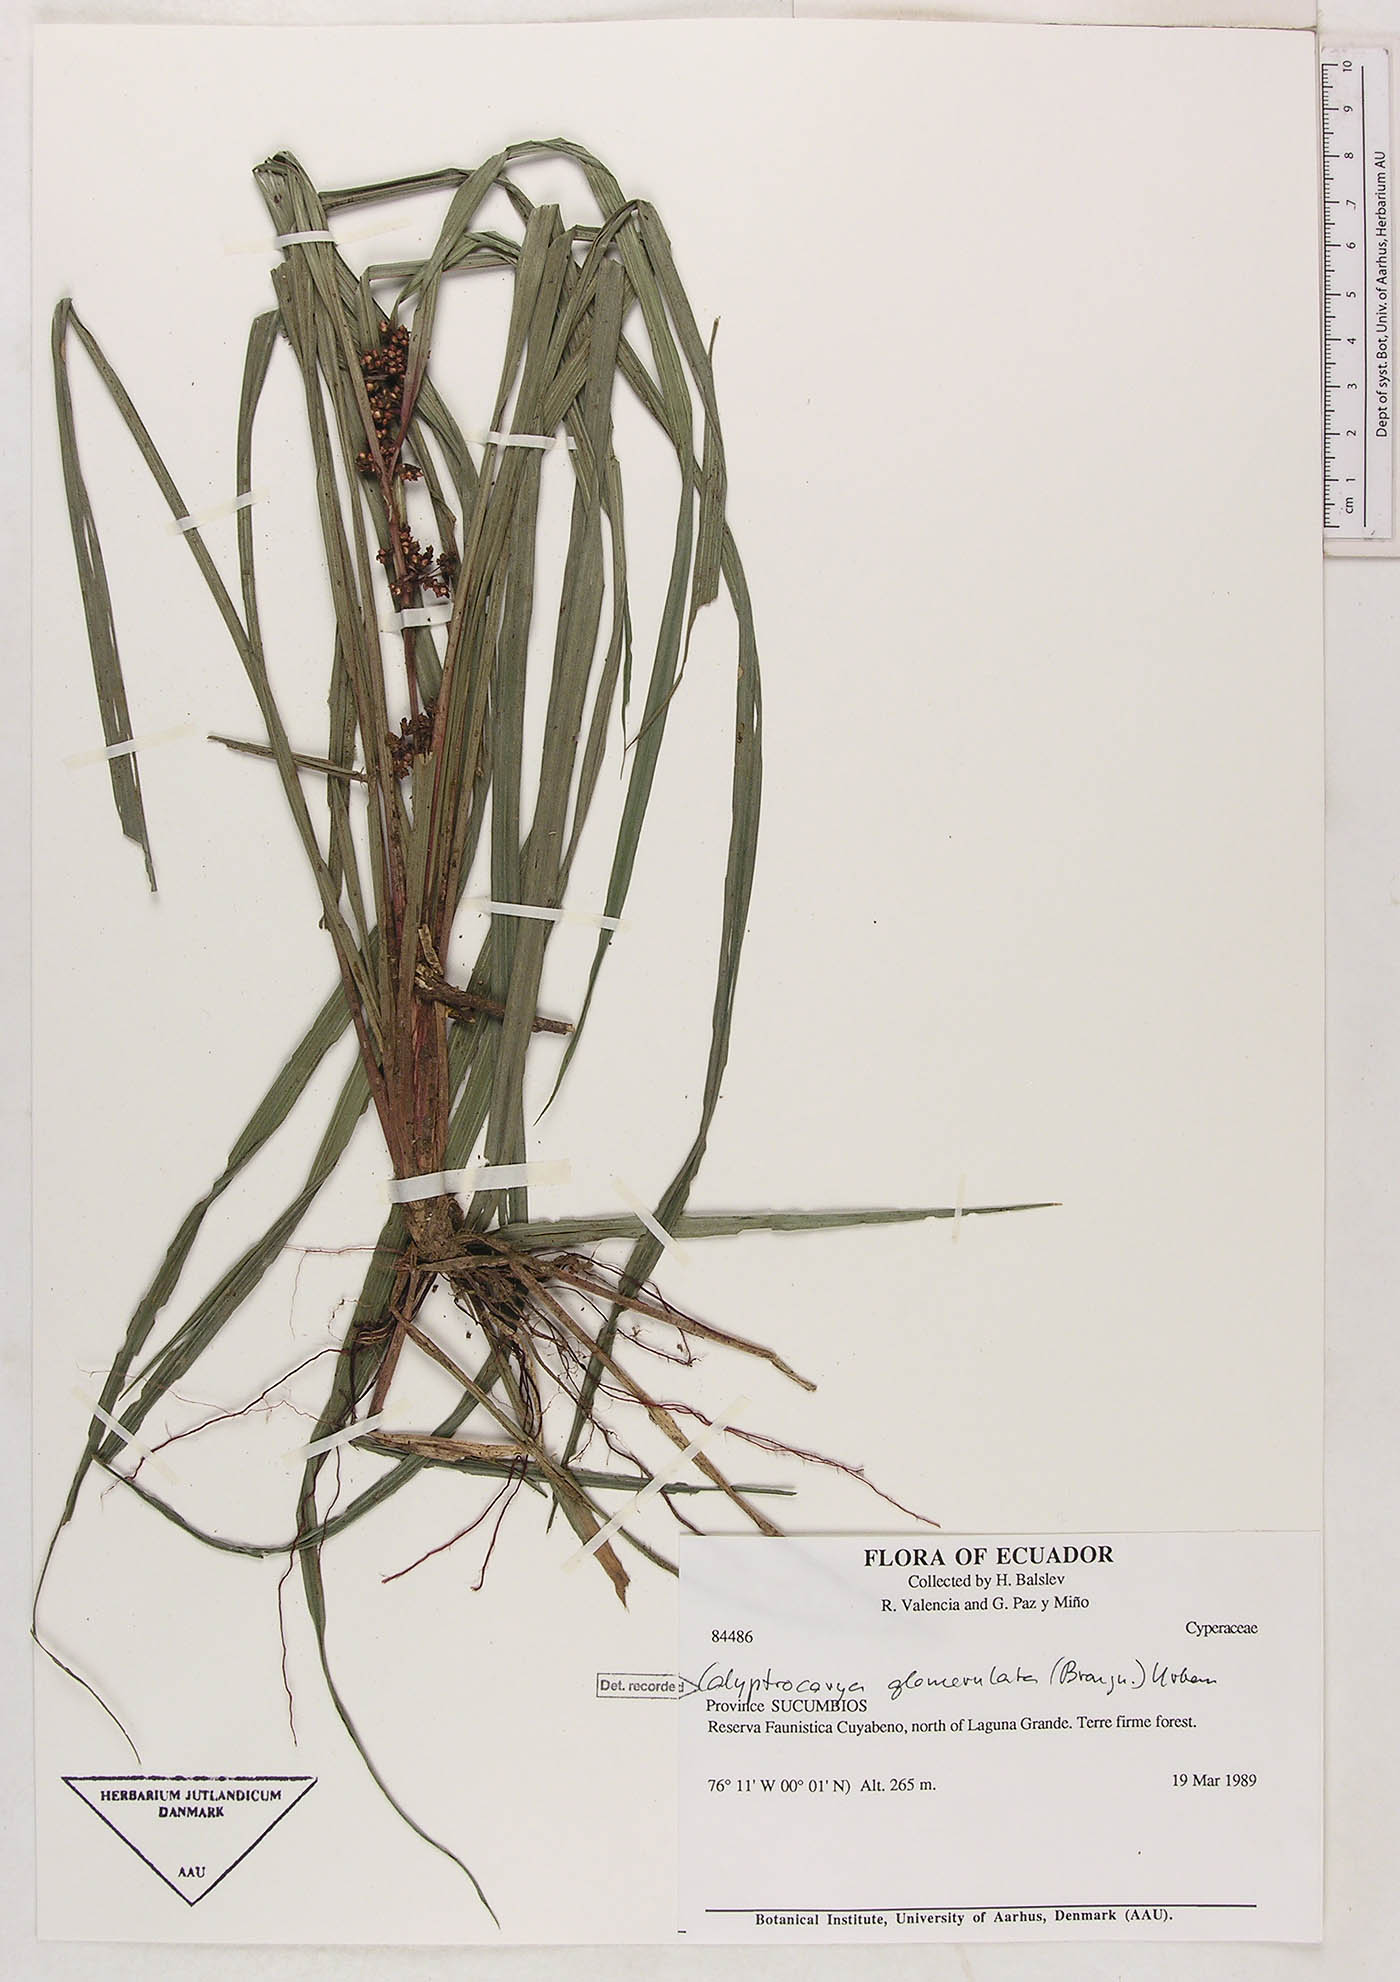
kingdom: Plantae
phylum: Tracheophyta
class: Liliopsida
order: Poales
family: Cyperaceae
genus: Calyptrocarya
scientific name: Calyptrocarya glomerulata
